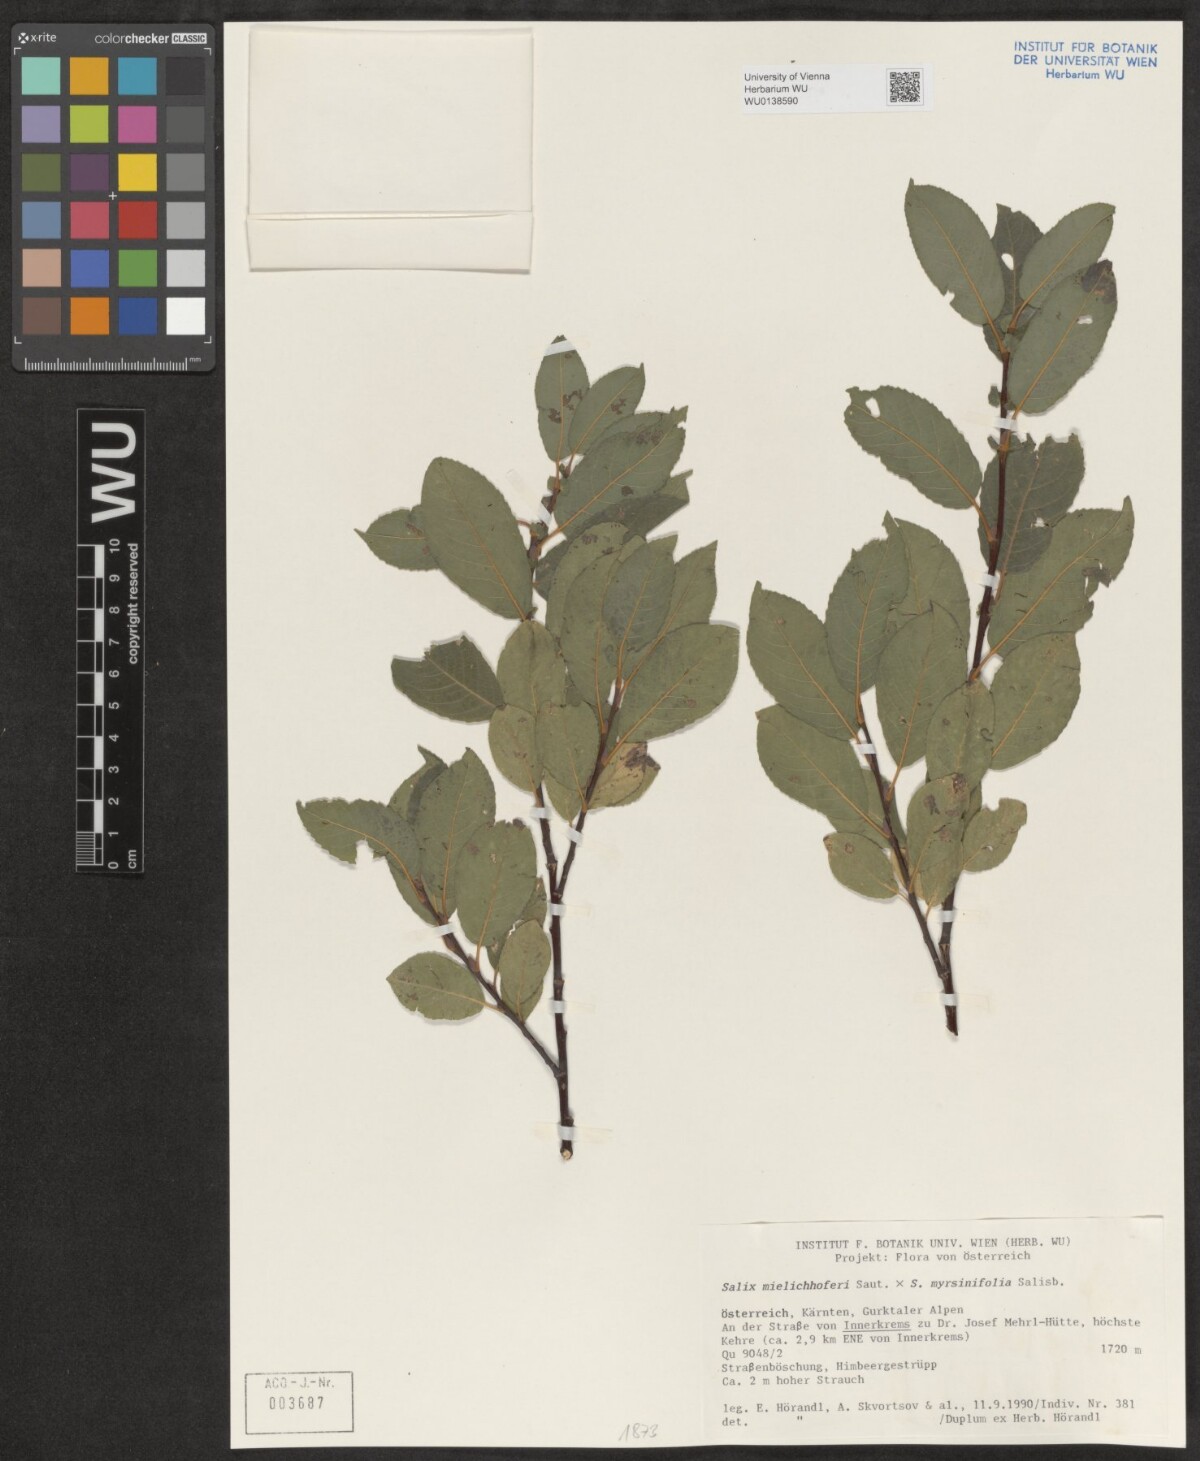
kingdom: Plantae
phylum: Tracheophyta
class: Magnoliopsida
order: Malpighiales
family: Salicaceae
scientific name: Salicaceae
